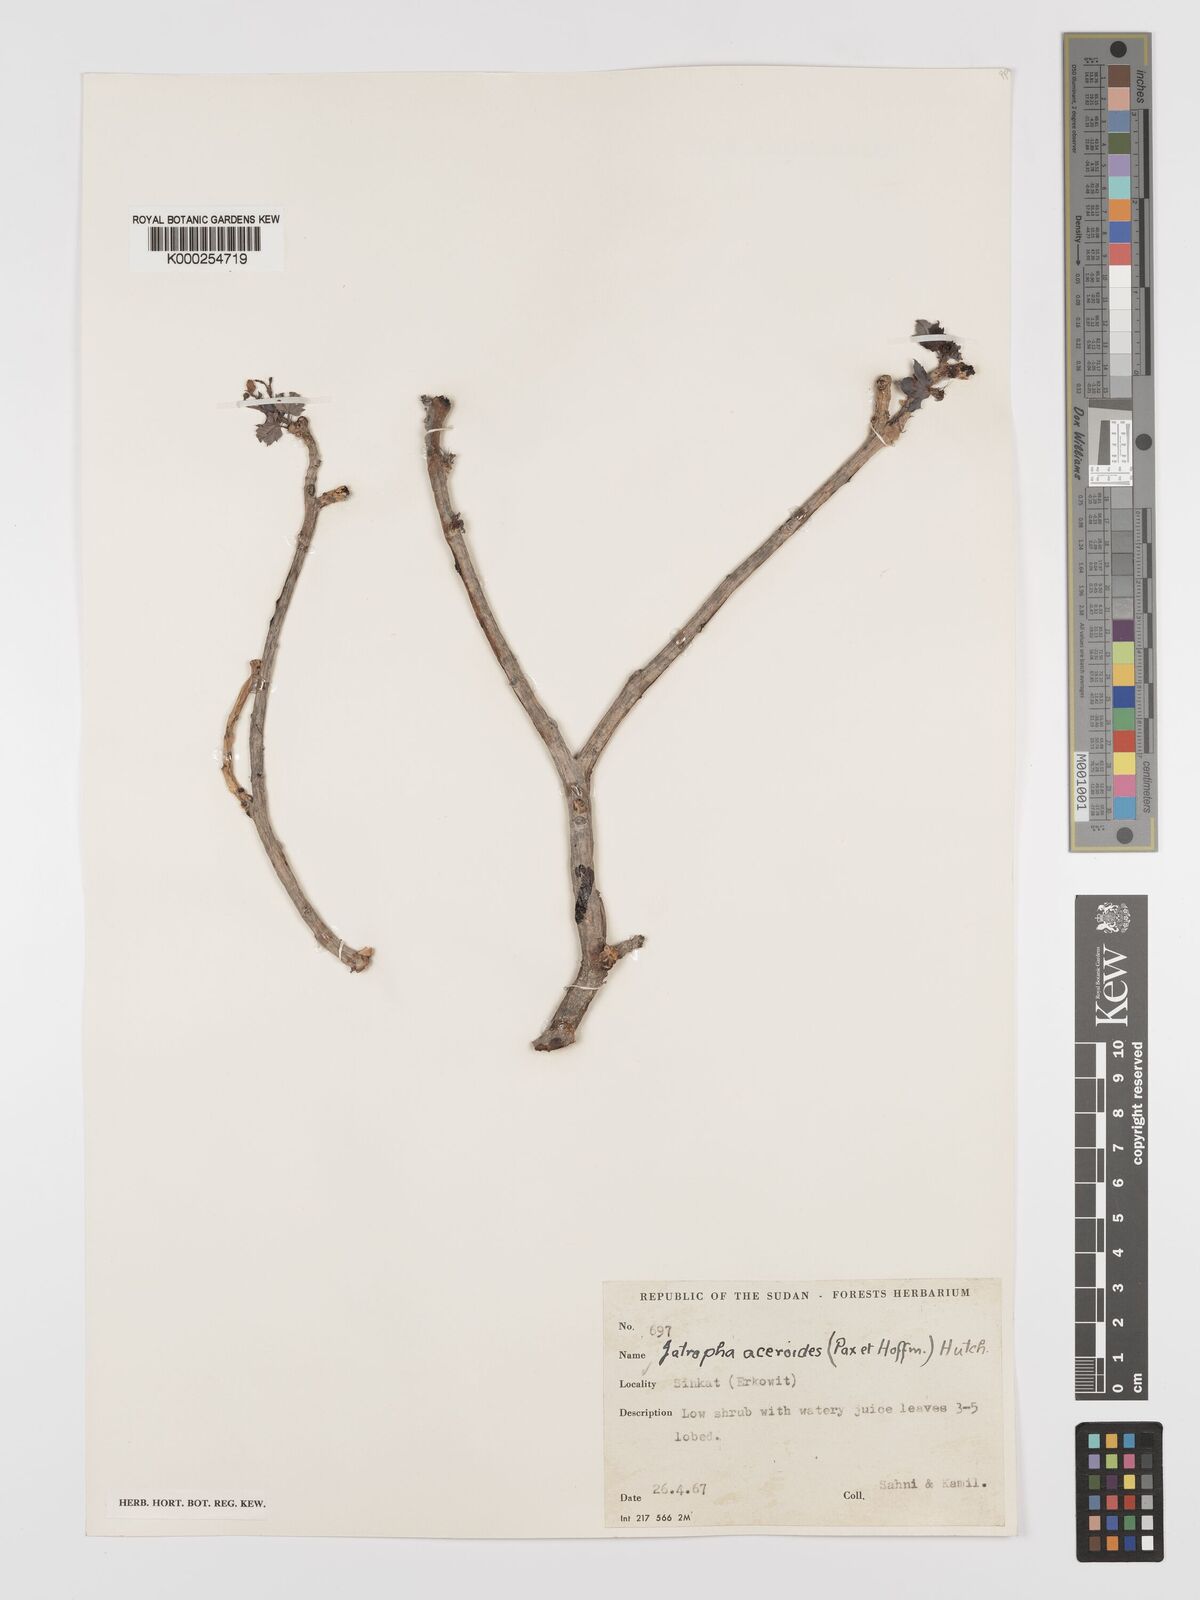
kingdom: Plantae
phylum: Tracheophyta
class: Magnoliopsida
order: Malpighiales
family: Euphorbiaceae
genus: Jatropha
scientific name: Jatropha aceroides
